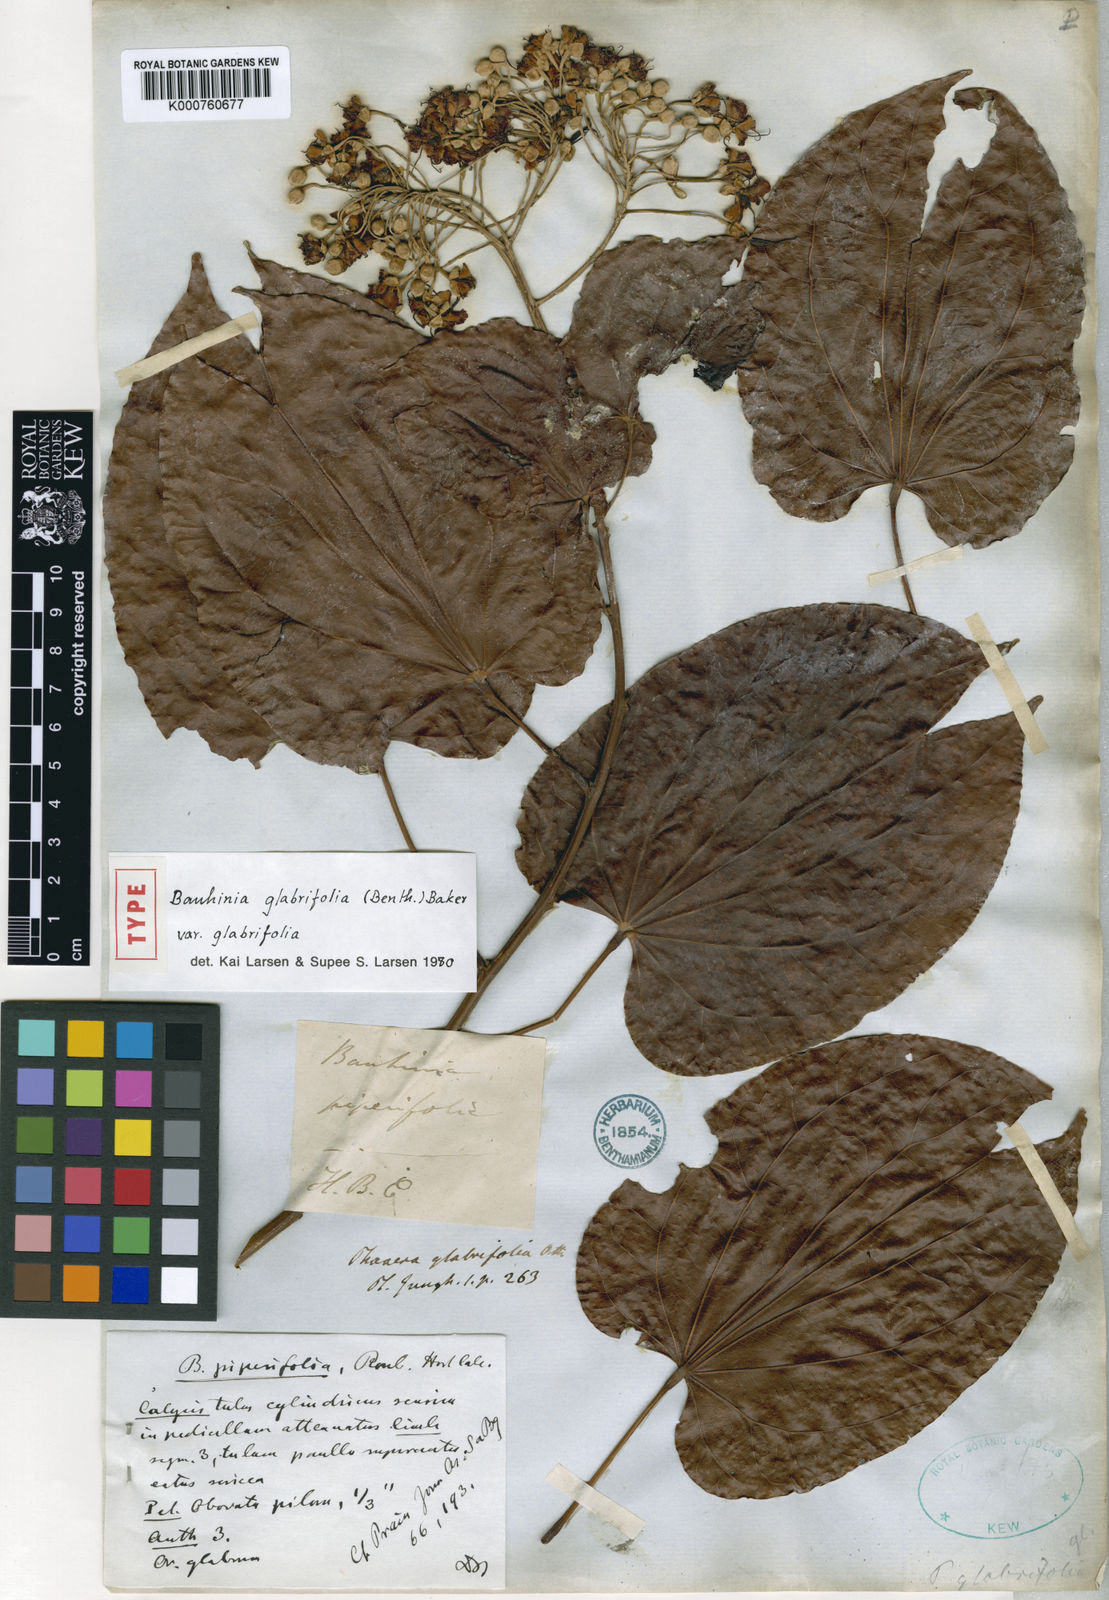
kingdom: Plantae
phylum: Tracheophyta
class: Magnoliopsida
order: Fabales
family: Fabaceae
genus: Phanera
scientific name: Phanera glabrifolia
